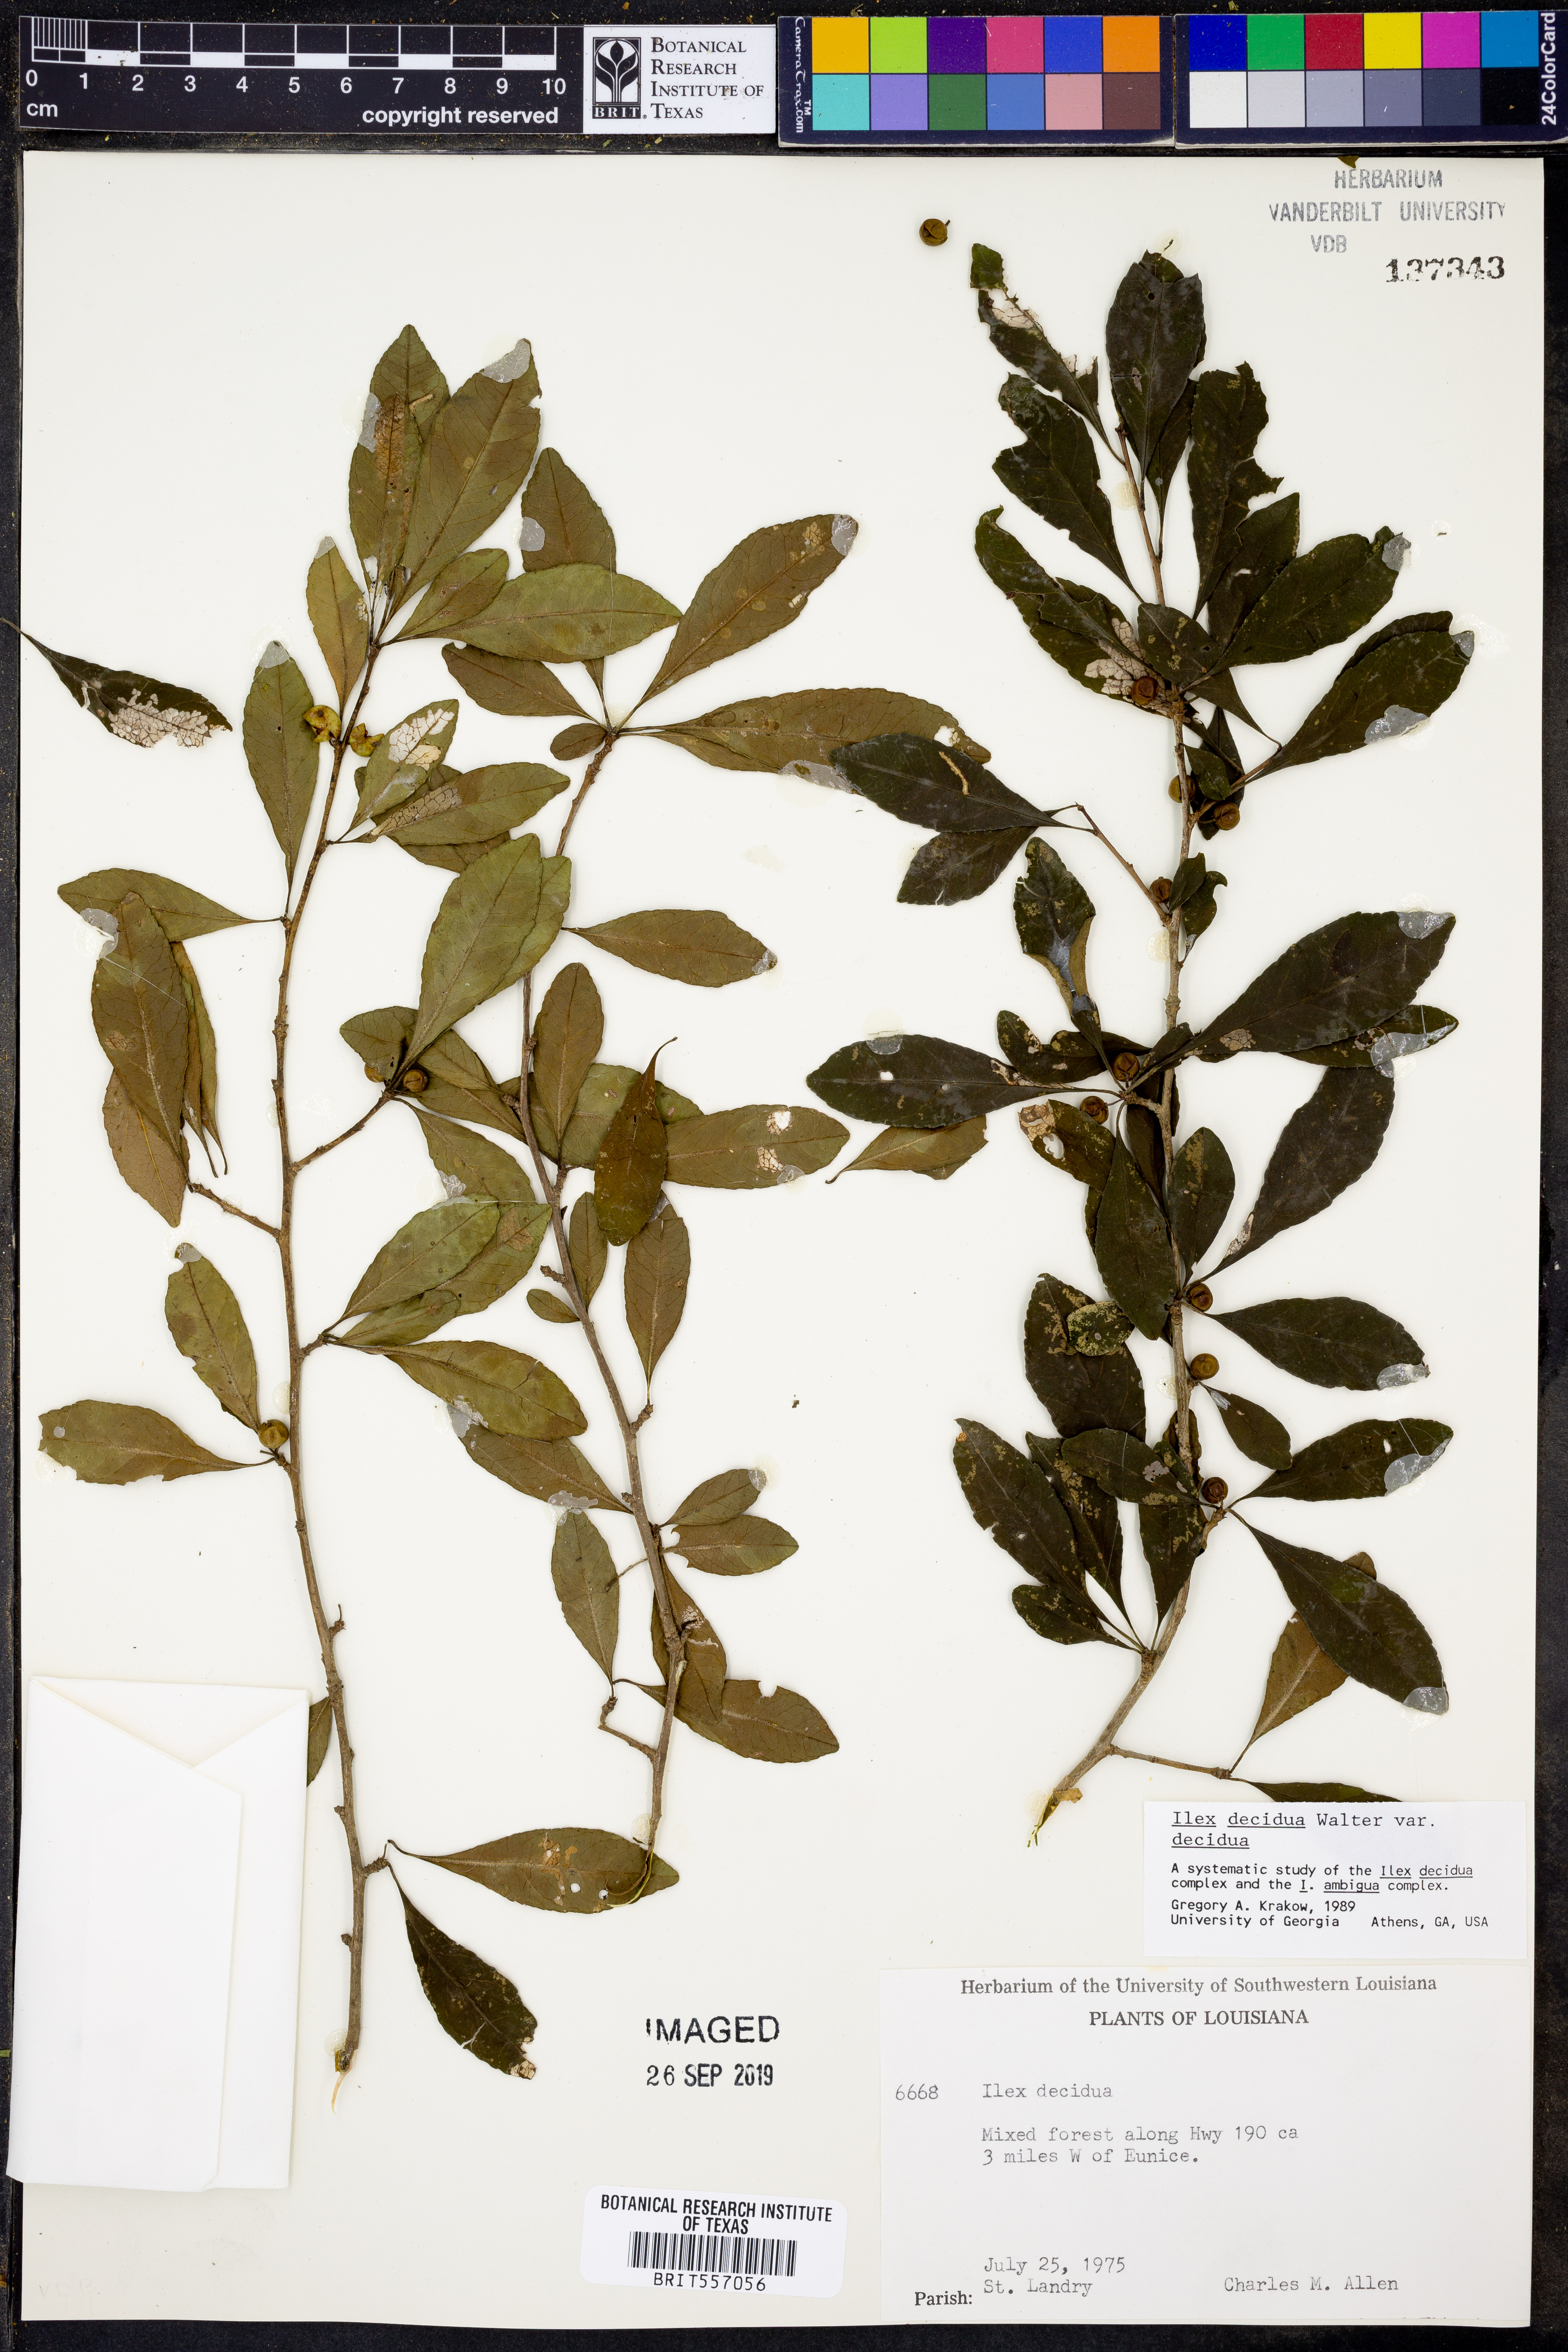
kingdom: Plantae
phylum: Tracheophyta
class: Magnoliopsida
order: Aquifoliales
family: Aquifoliaceae
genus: Ilex
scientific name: Ilex decidua
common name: Possum-haw
